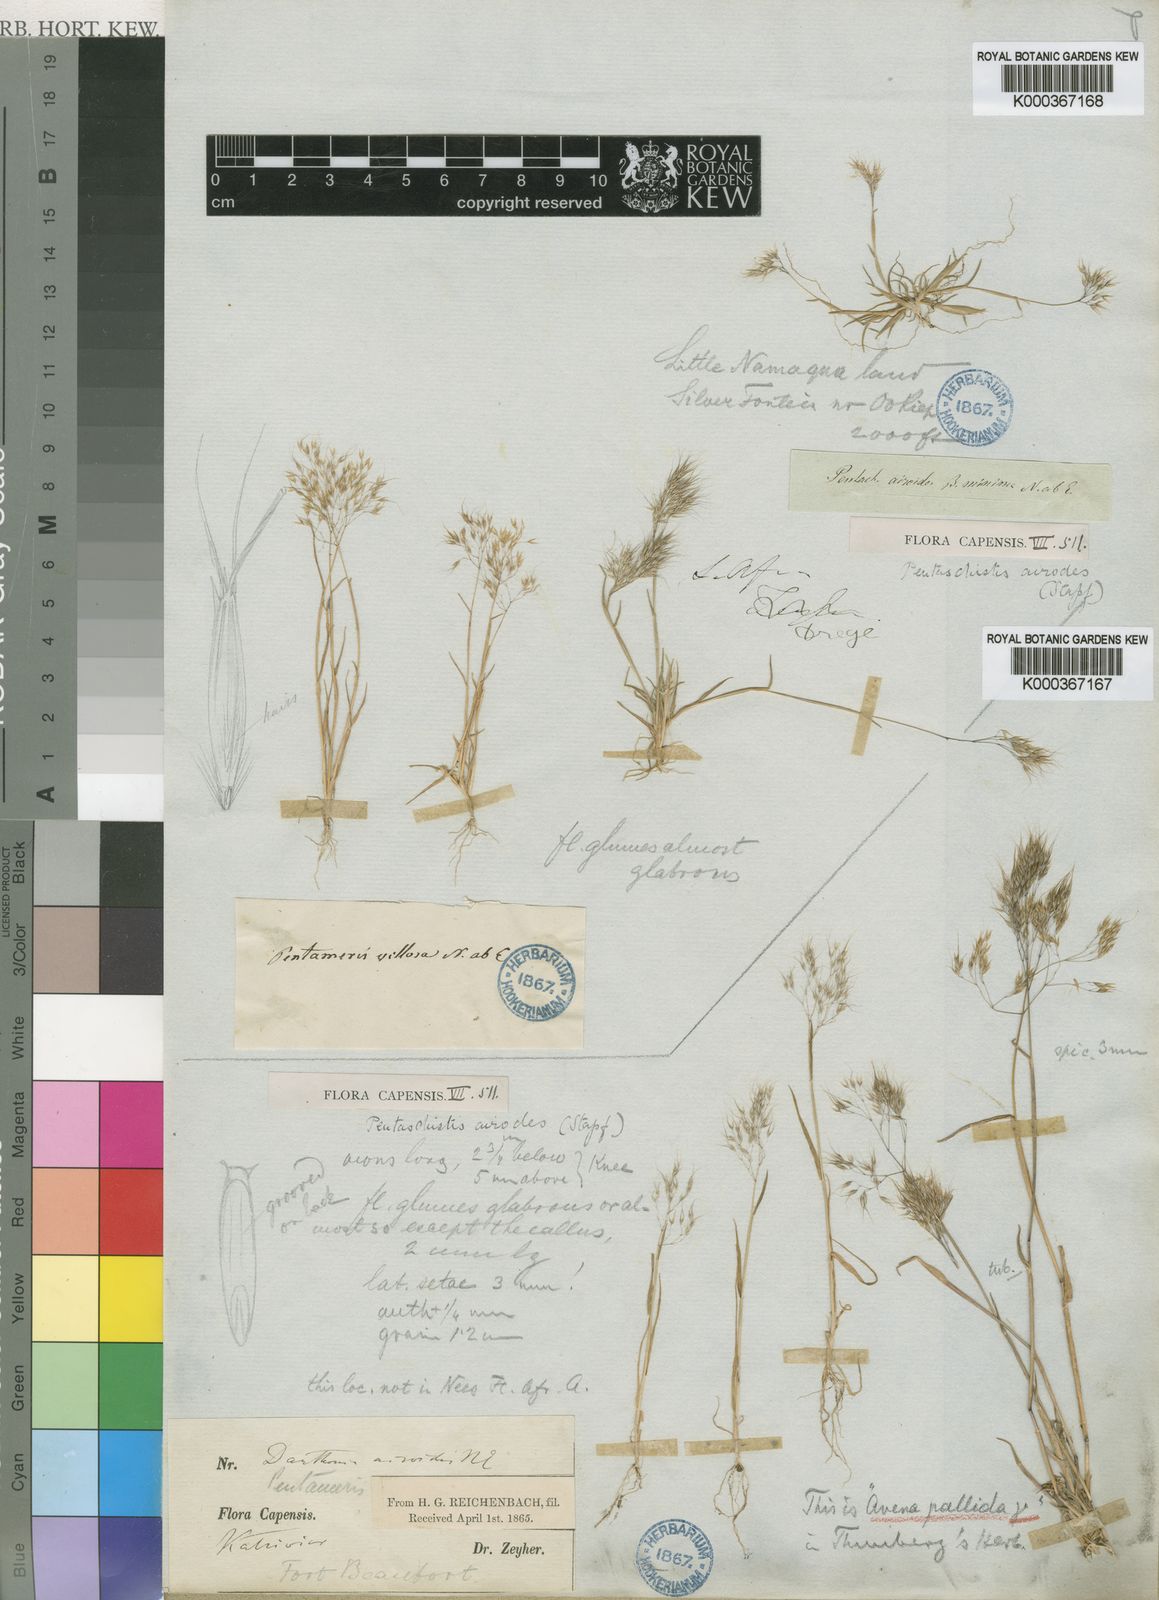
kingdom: Plantae
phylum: Tracheophyta
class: Liliopsida
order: Poales
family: Poaceae
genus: Pentameris
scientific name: Pentameris airoides
